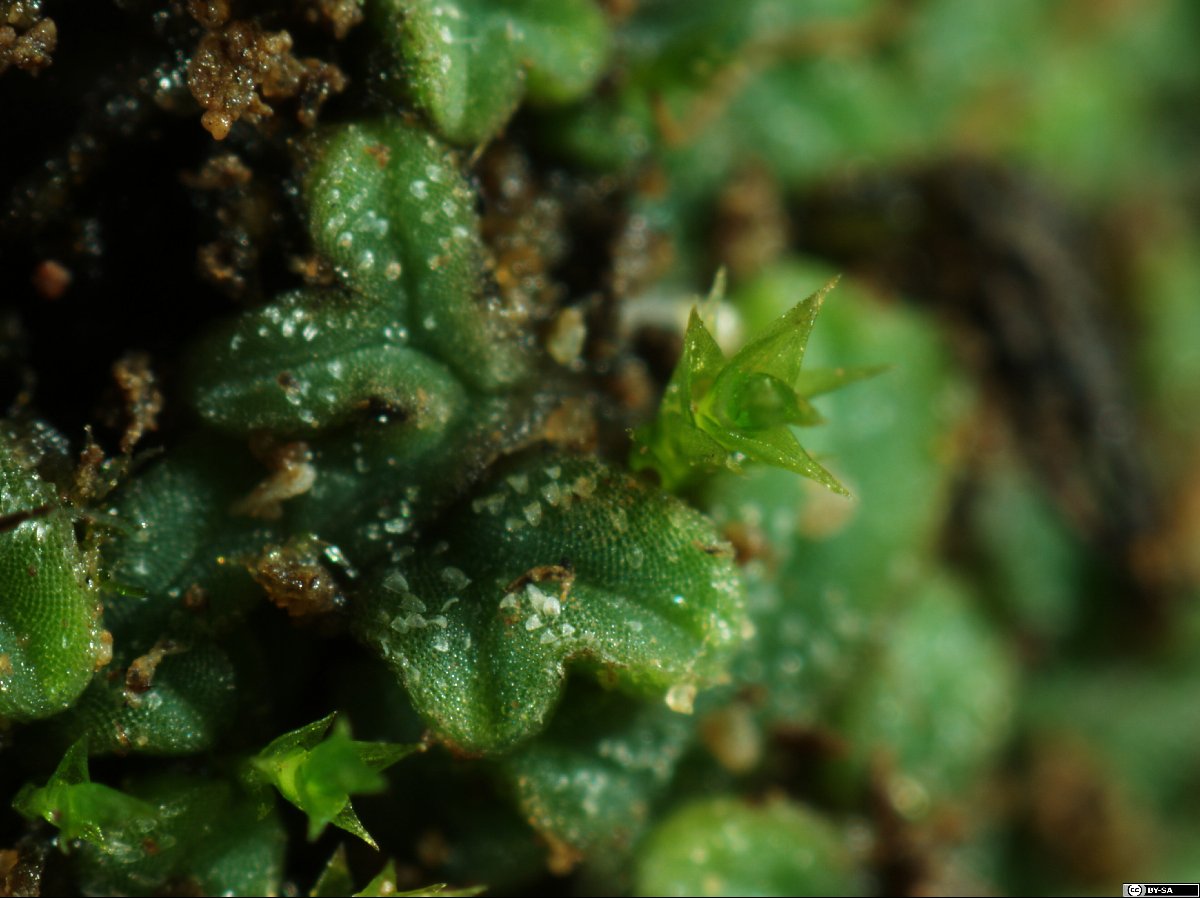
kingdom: Plantae
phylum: Marchantiophyta
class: Marchantiopsida
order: Marchantiales
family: Ricciaceae
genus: Riccia
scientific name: Riccia papillosa
